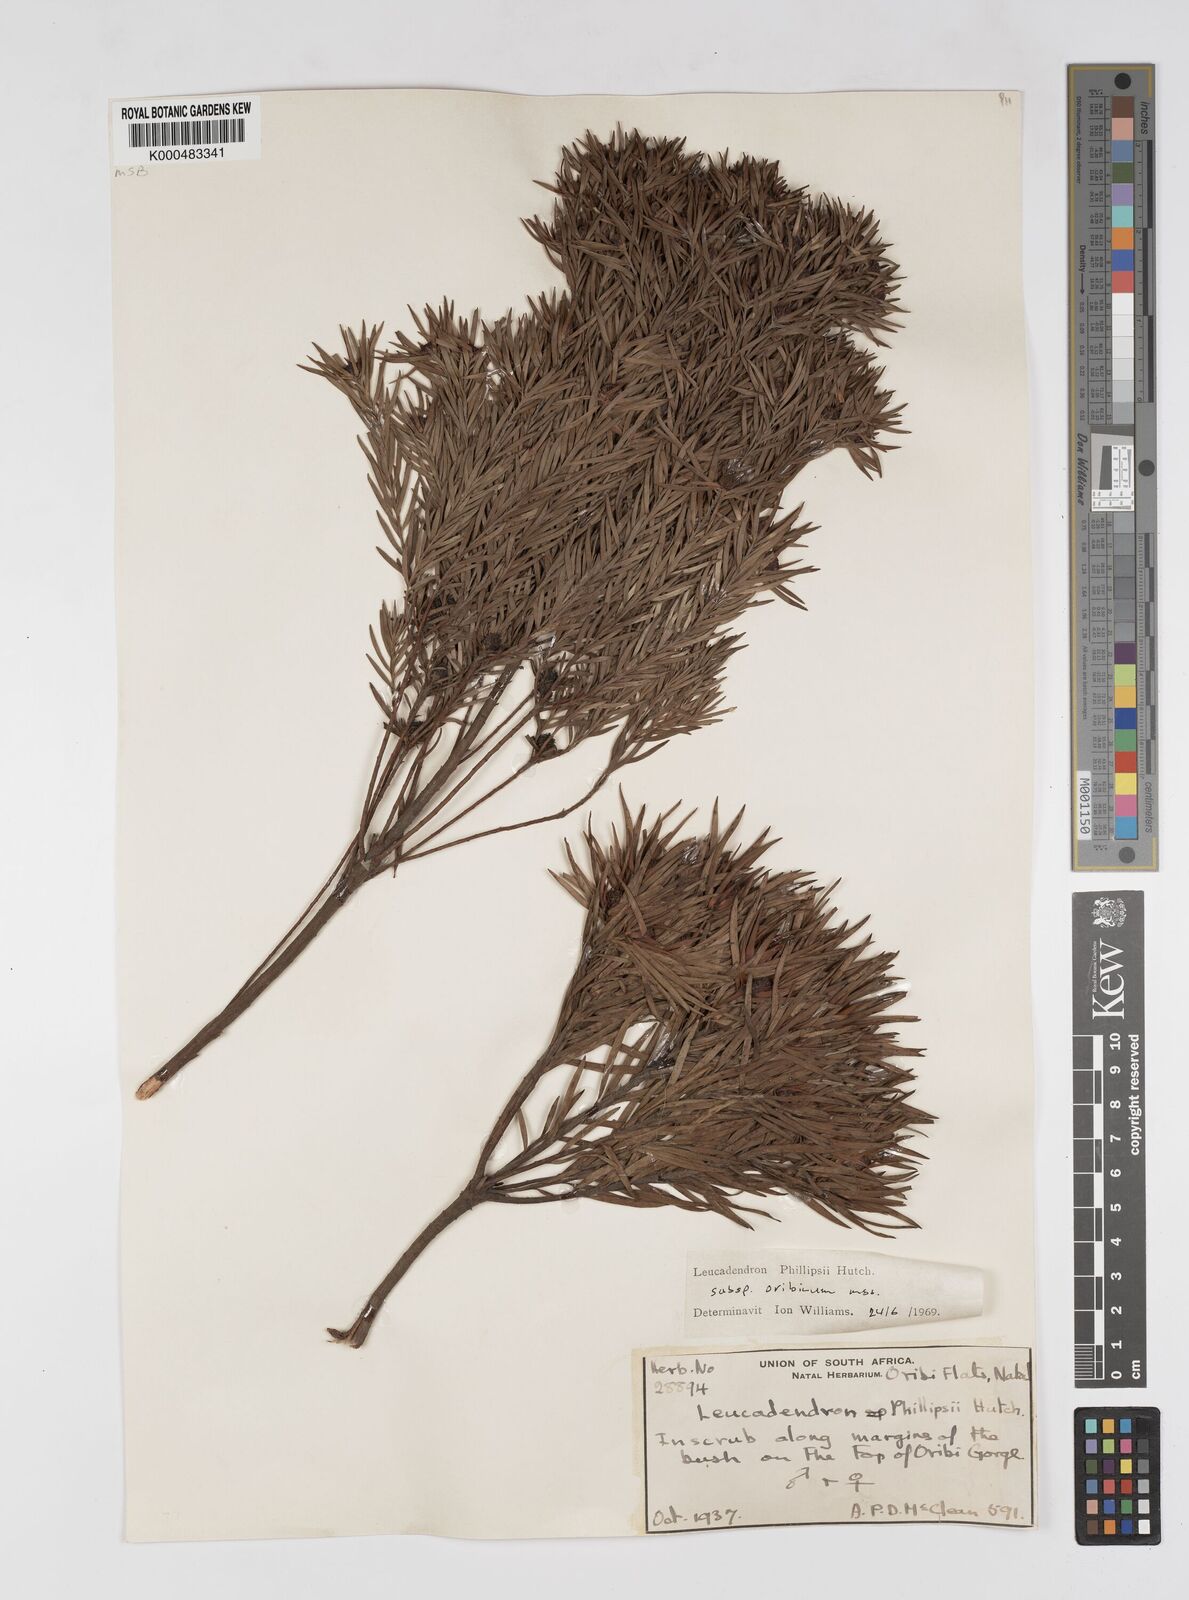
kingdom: Plantae
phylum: Tracheophyta
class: Magnoliopsida
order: Proteales
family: Proteaceae
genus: Leucadendron
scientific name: Leucadendron spissifolium
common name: Spear-leaf conebush
